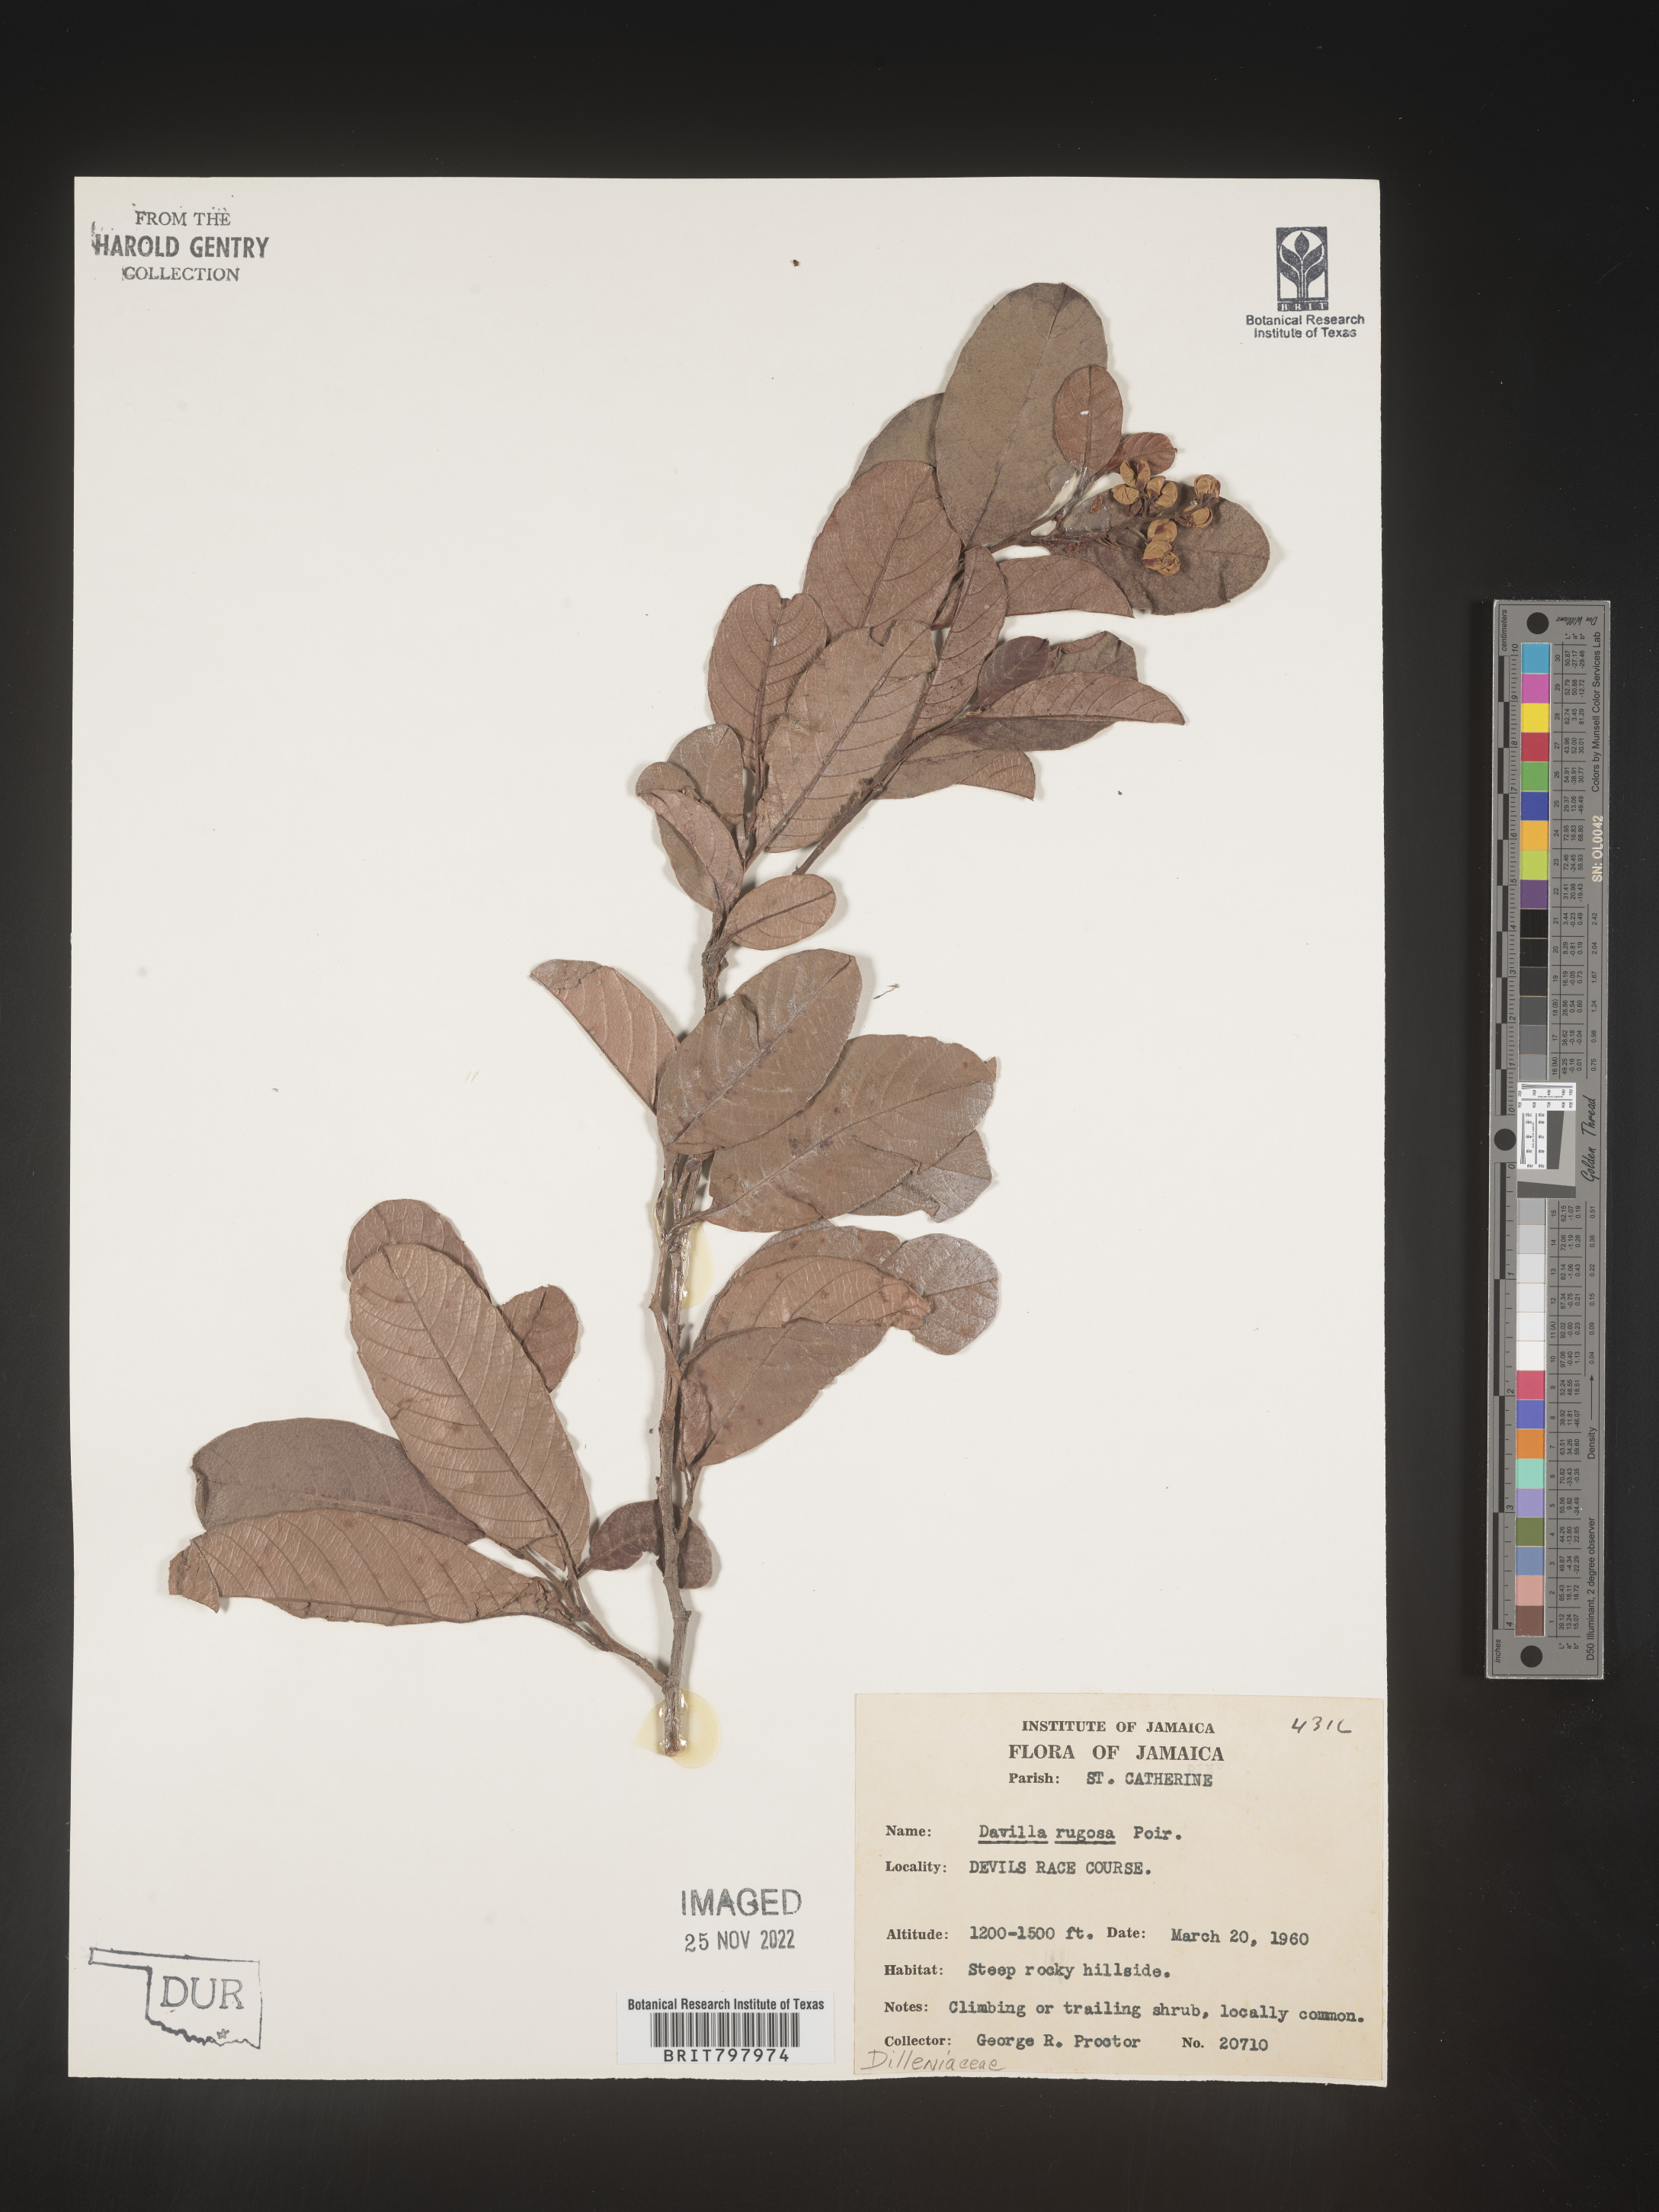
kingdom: Plantae
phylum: Tracheophyta
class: Polypodiopsida
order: Polypodiales
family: Davalliaceae
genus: Davallia
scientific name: Davallia
